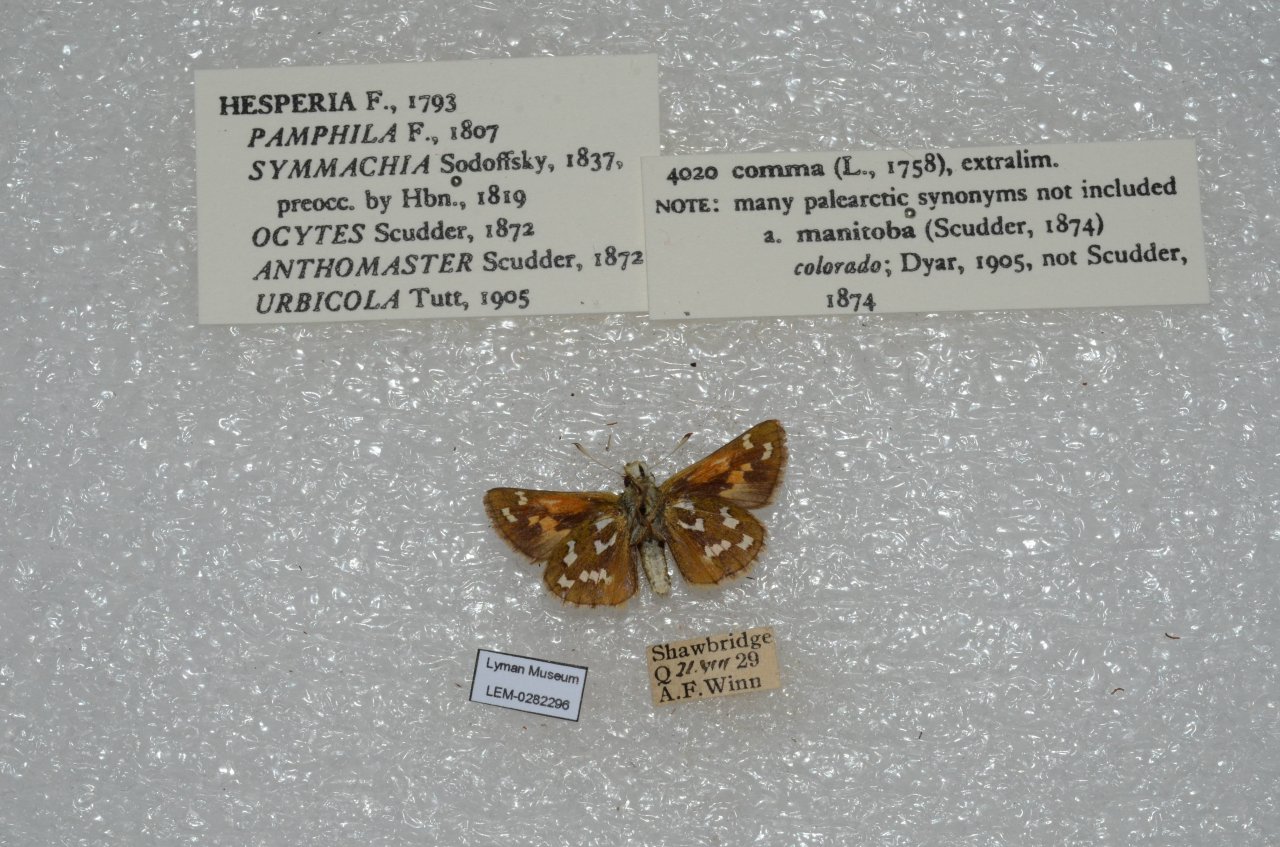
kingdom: Animalia
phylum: Arthropoda
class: Insecta
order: Lepidoptera
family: Hesperiidae
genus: Hesperia
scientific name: Hesperia comma
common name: Common Branded Skipper
